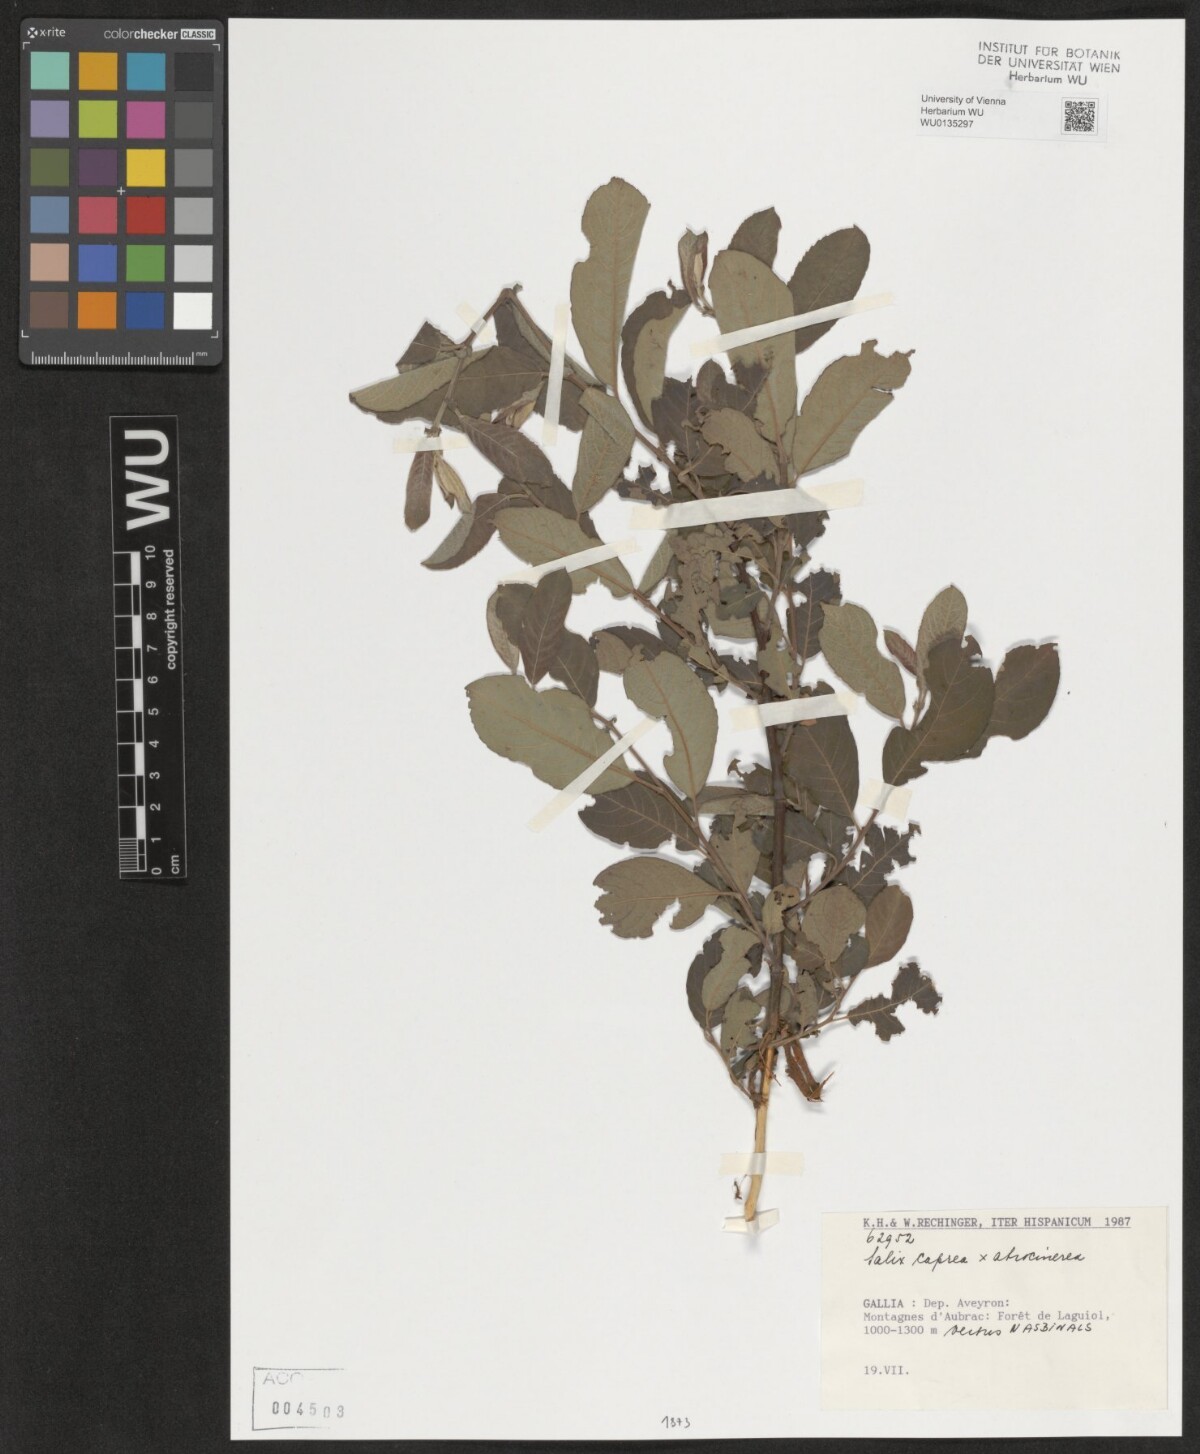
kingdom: Plantae
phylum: Tracheophyta
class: Magnoliopsida
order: Malpighiales
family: Salicaceae
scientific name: Salicaceae
